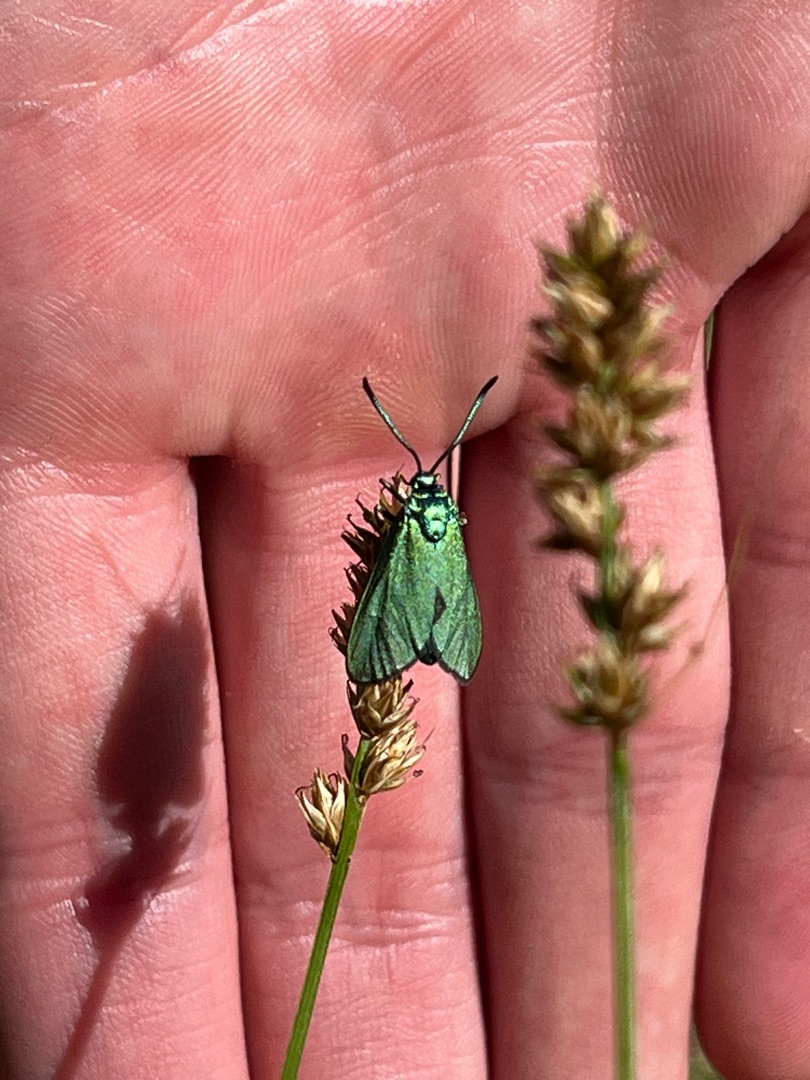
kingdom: Animalia
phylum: Arthropoda
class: Insecta
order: Lepidoptera
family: Zygaenidae
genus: Adscita
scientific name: Adscita statices
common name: Metalvinge
